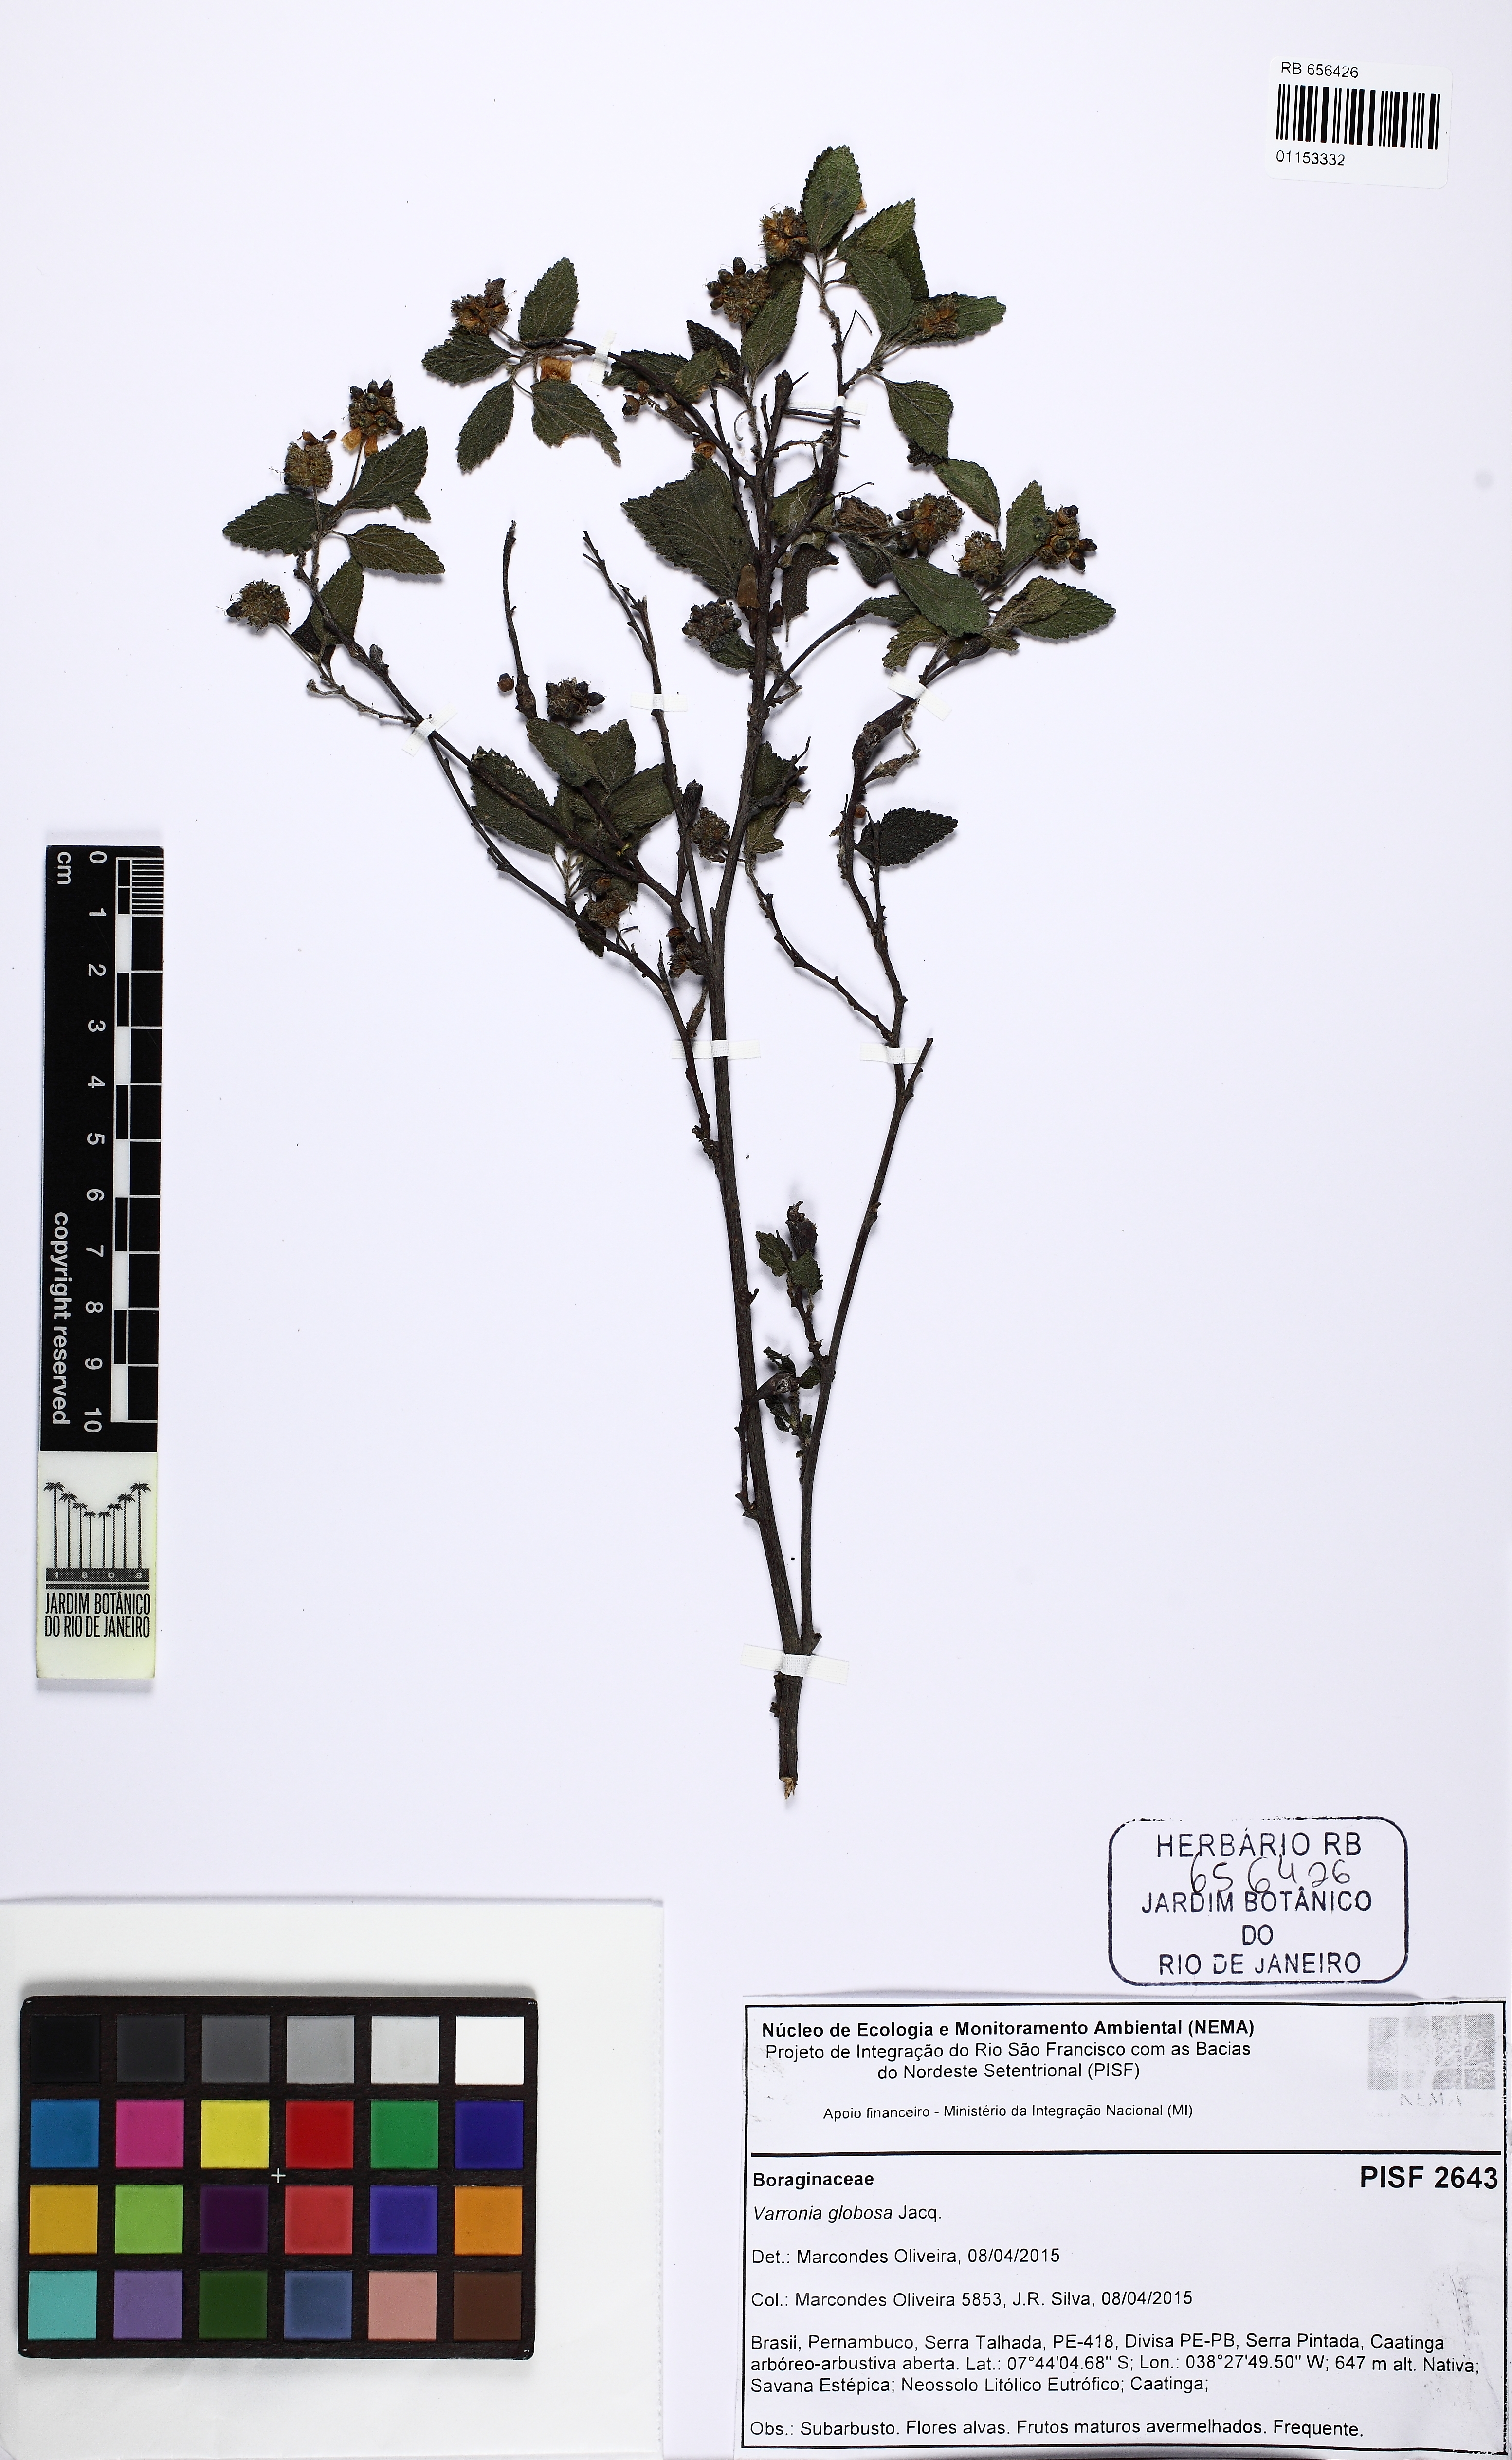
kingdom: Plantae
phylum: Tracheophyta
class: Magnoliopsida
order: Boraginales
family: Cordiaceae
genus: Varronia
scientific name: Varronia bullata
